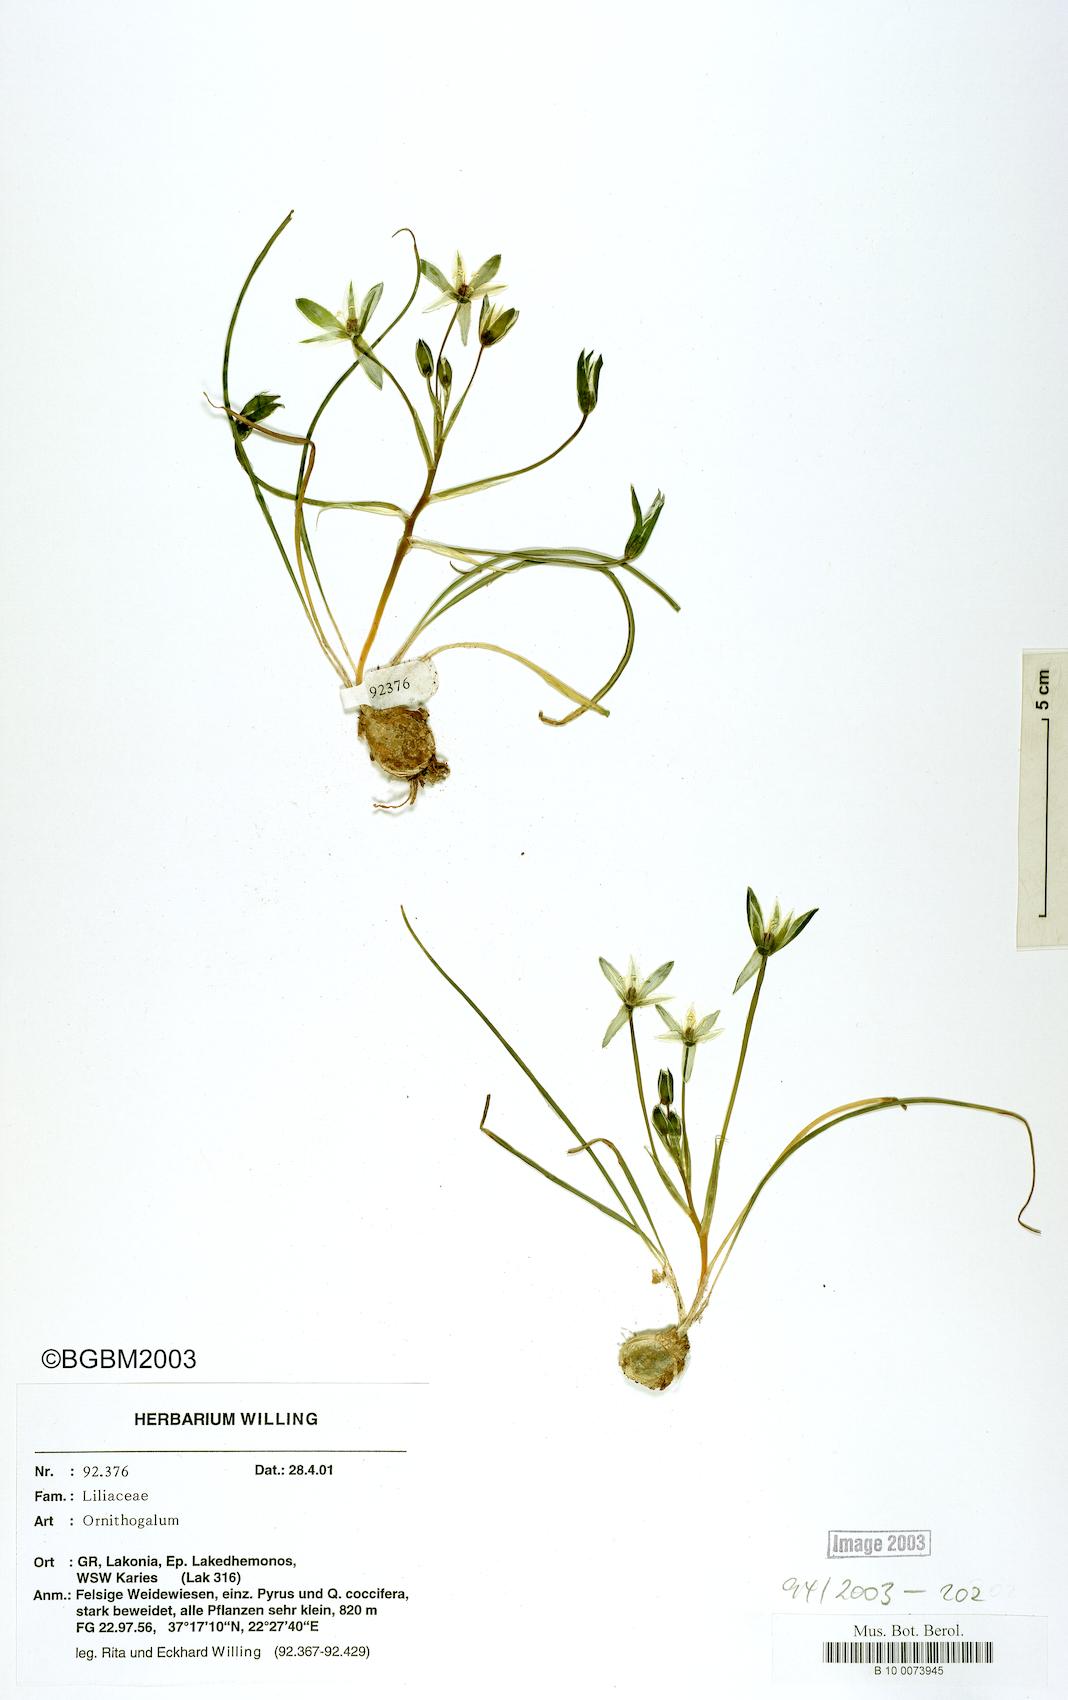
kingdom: Plantae
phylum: Tracheophyta
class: Liliopsida
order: Asparagales
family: Asparagaceae
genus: Ornithogalum
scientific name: Ornithogalum
